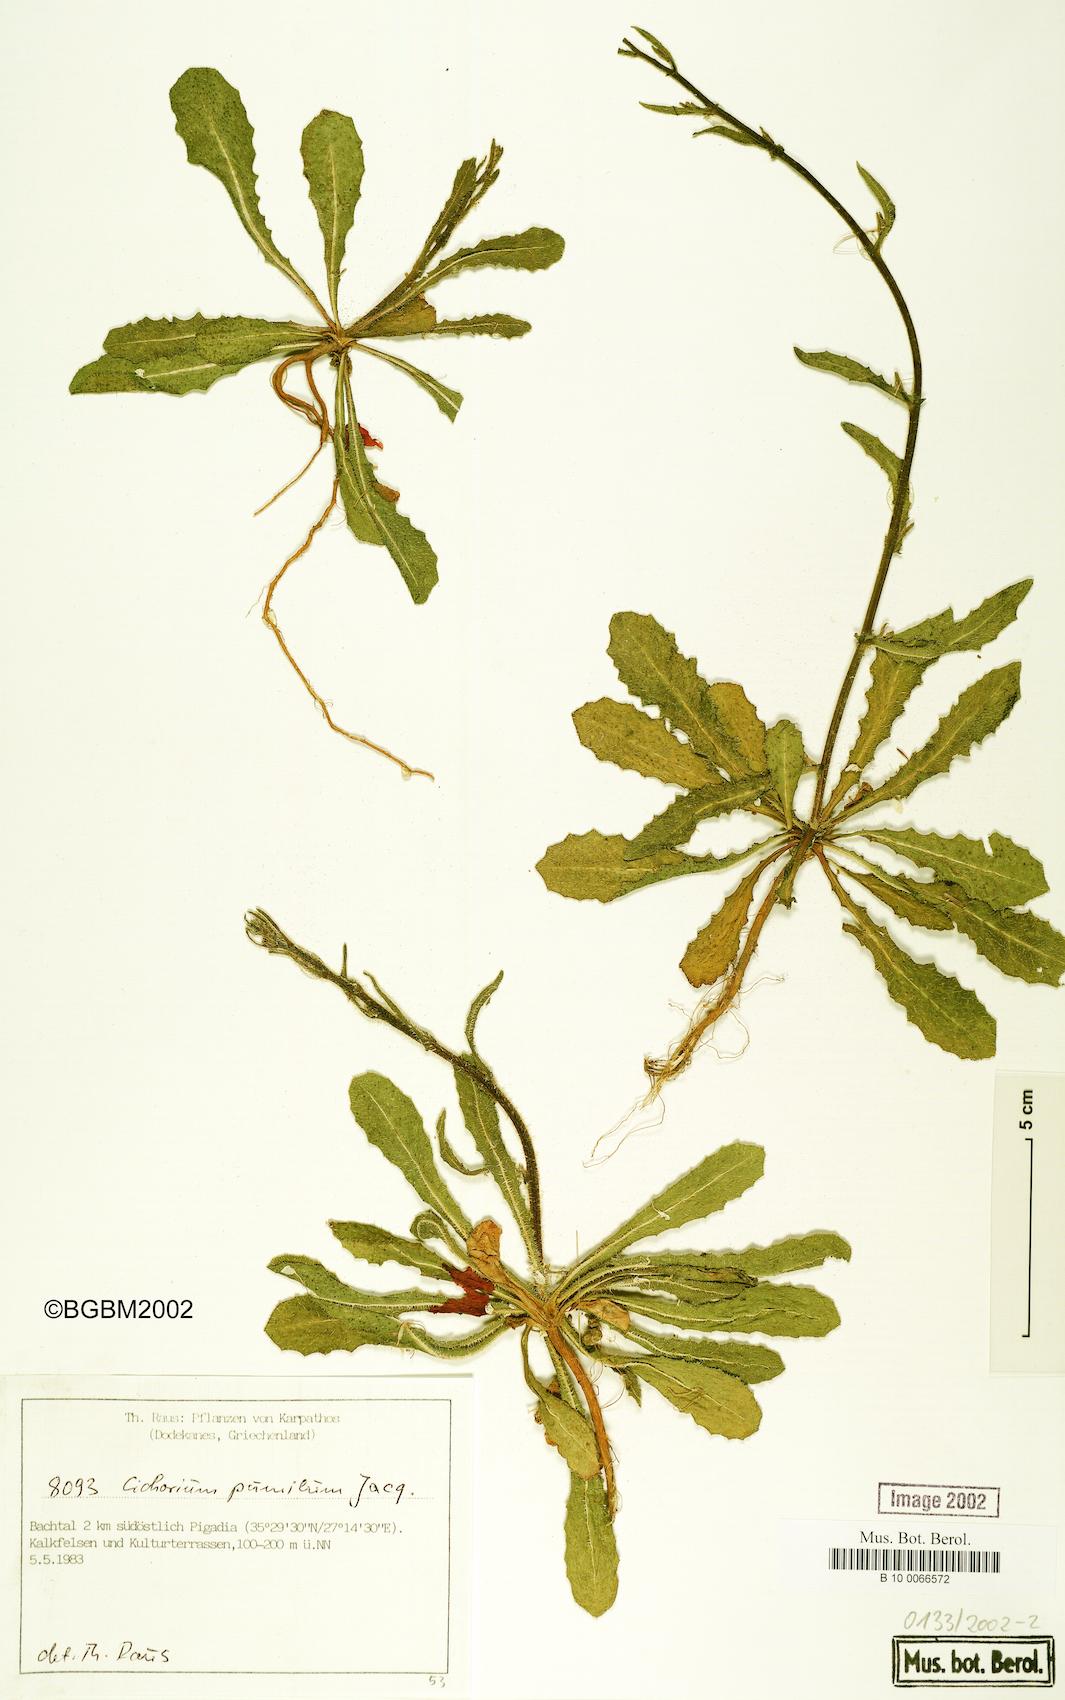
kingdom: Plantae
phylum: Tracheophyta
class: Magnoliopsida
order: Asterales
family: Asteraceae
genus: Cichorium
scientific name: Cichorium pumilum
